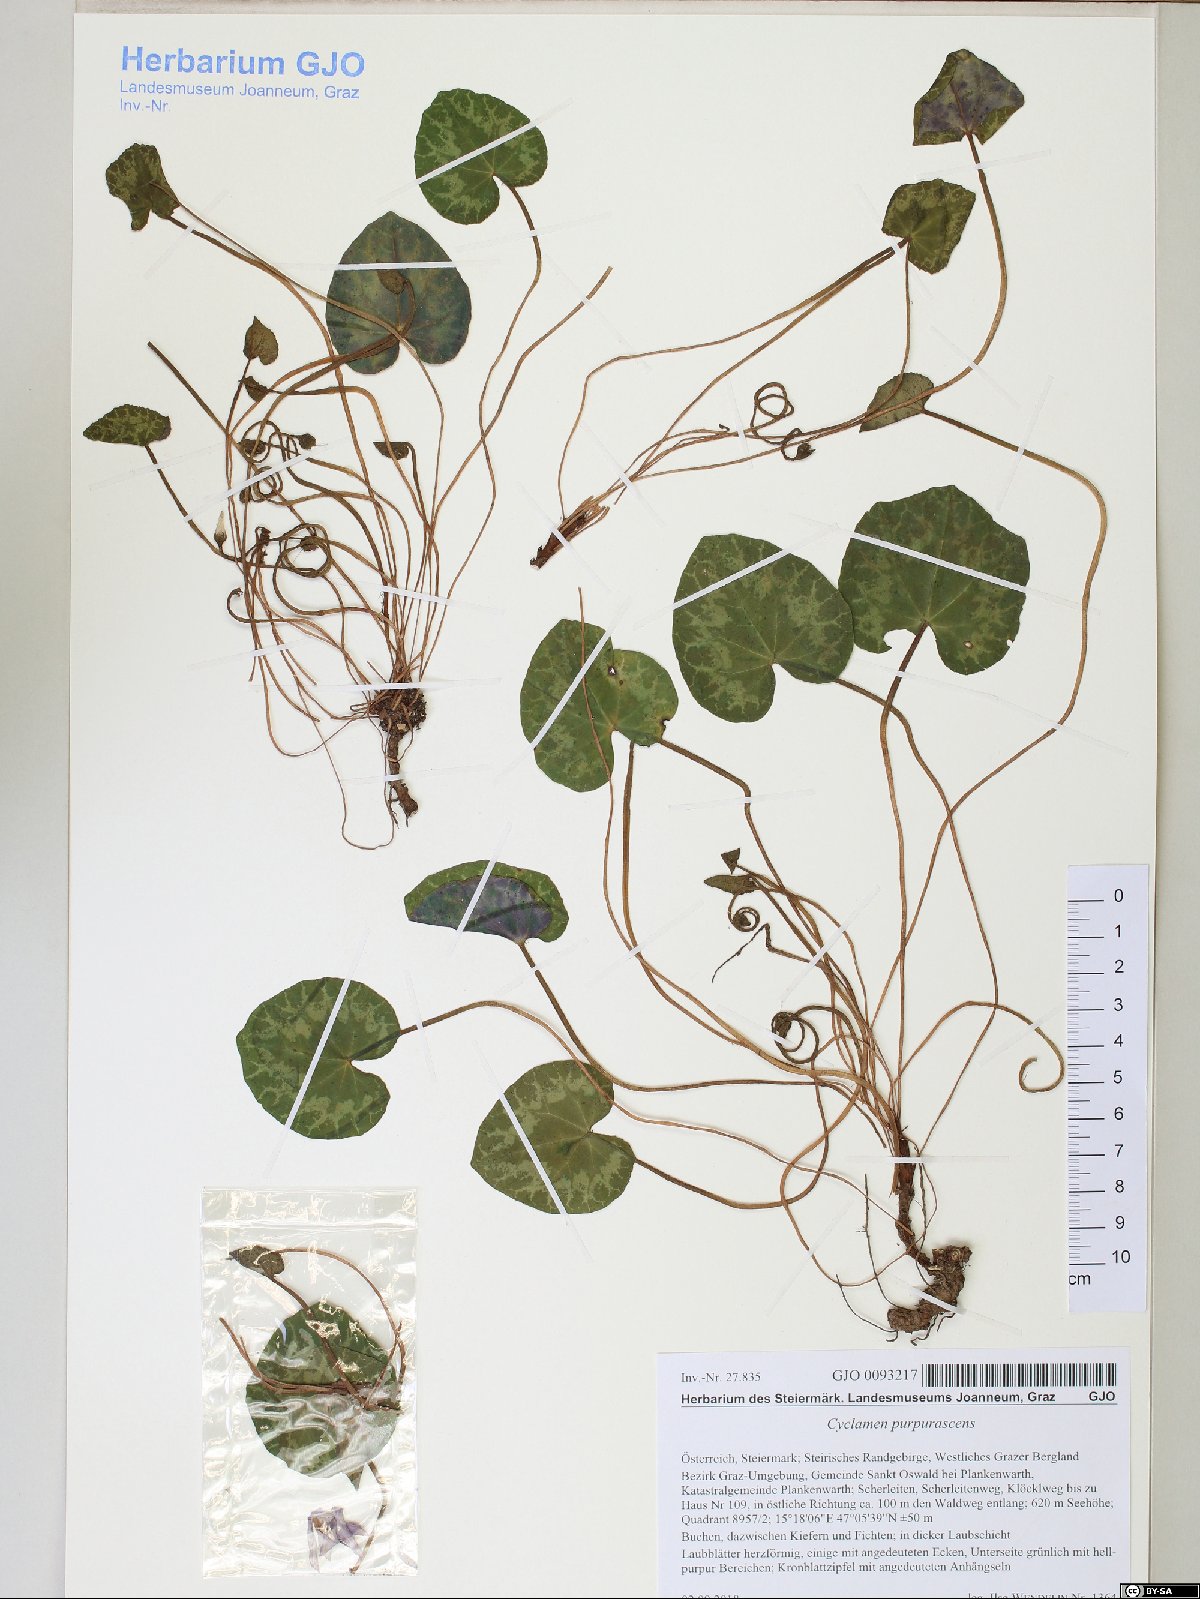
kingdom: Plantae
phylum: Tracheophyta
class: Magnoliopsida
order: Ericales
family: Primulaceae
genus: Cyclamen
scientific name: Cyclamen purpurascens
